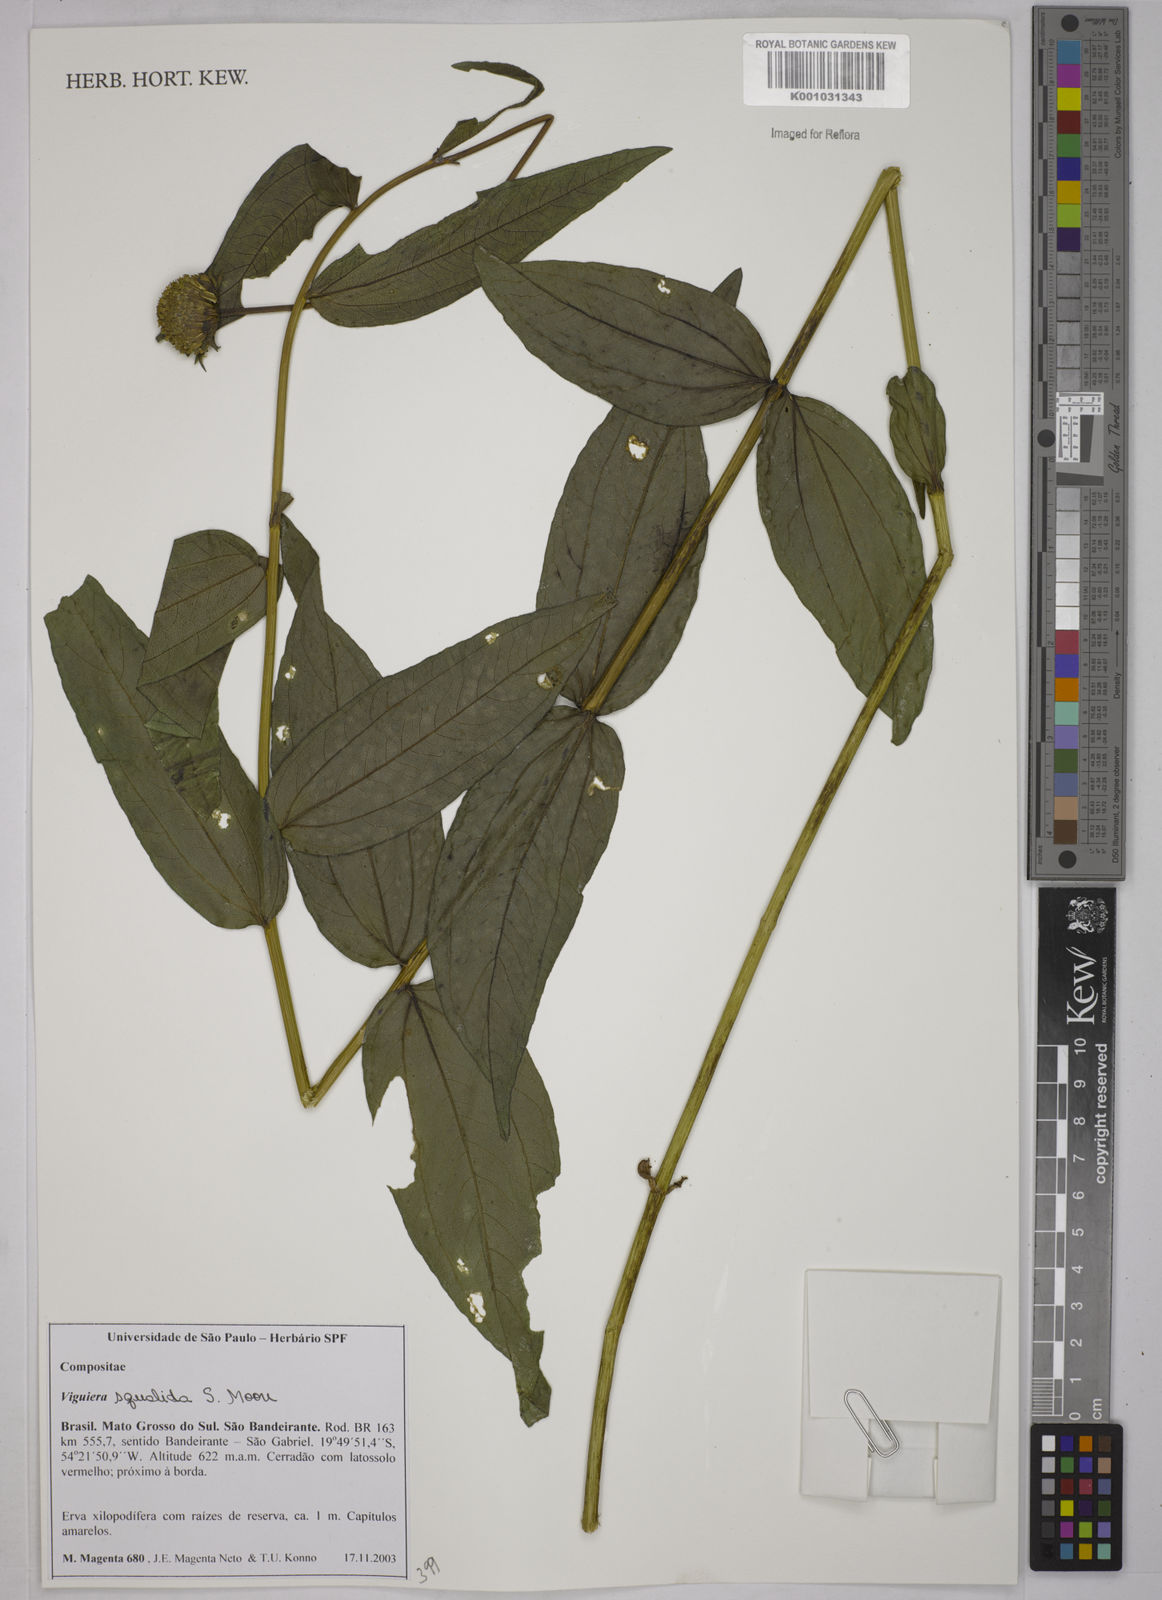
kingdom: Plantae
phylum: Tracheophyta
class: Magnoliopsida
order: Asterales
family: Asteraceae
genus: Aldama
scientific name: Aldama squalida
